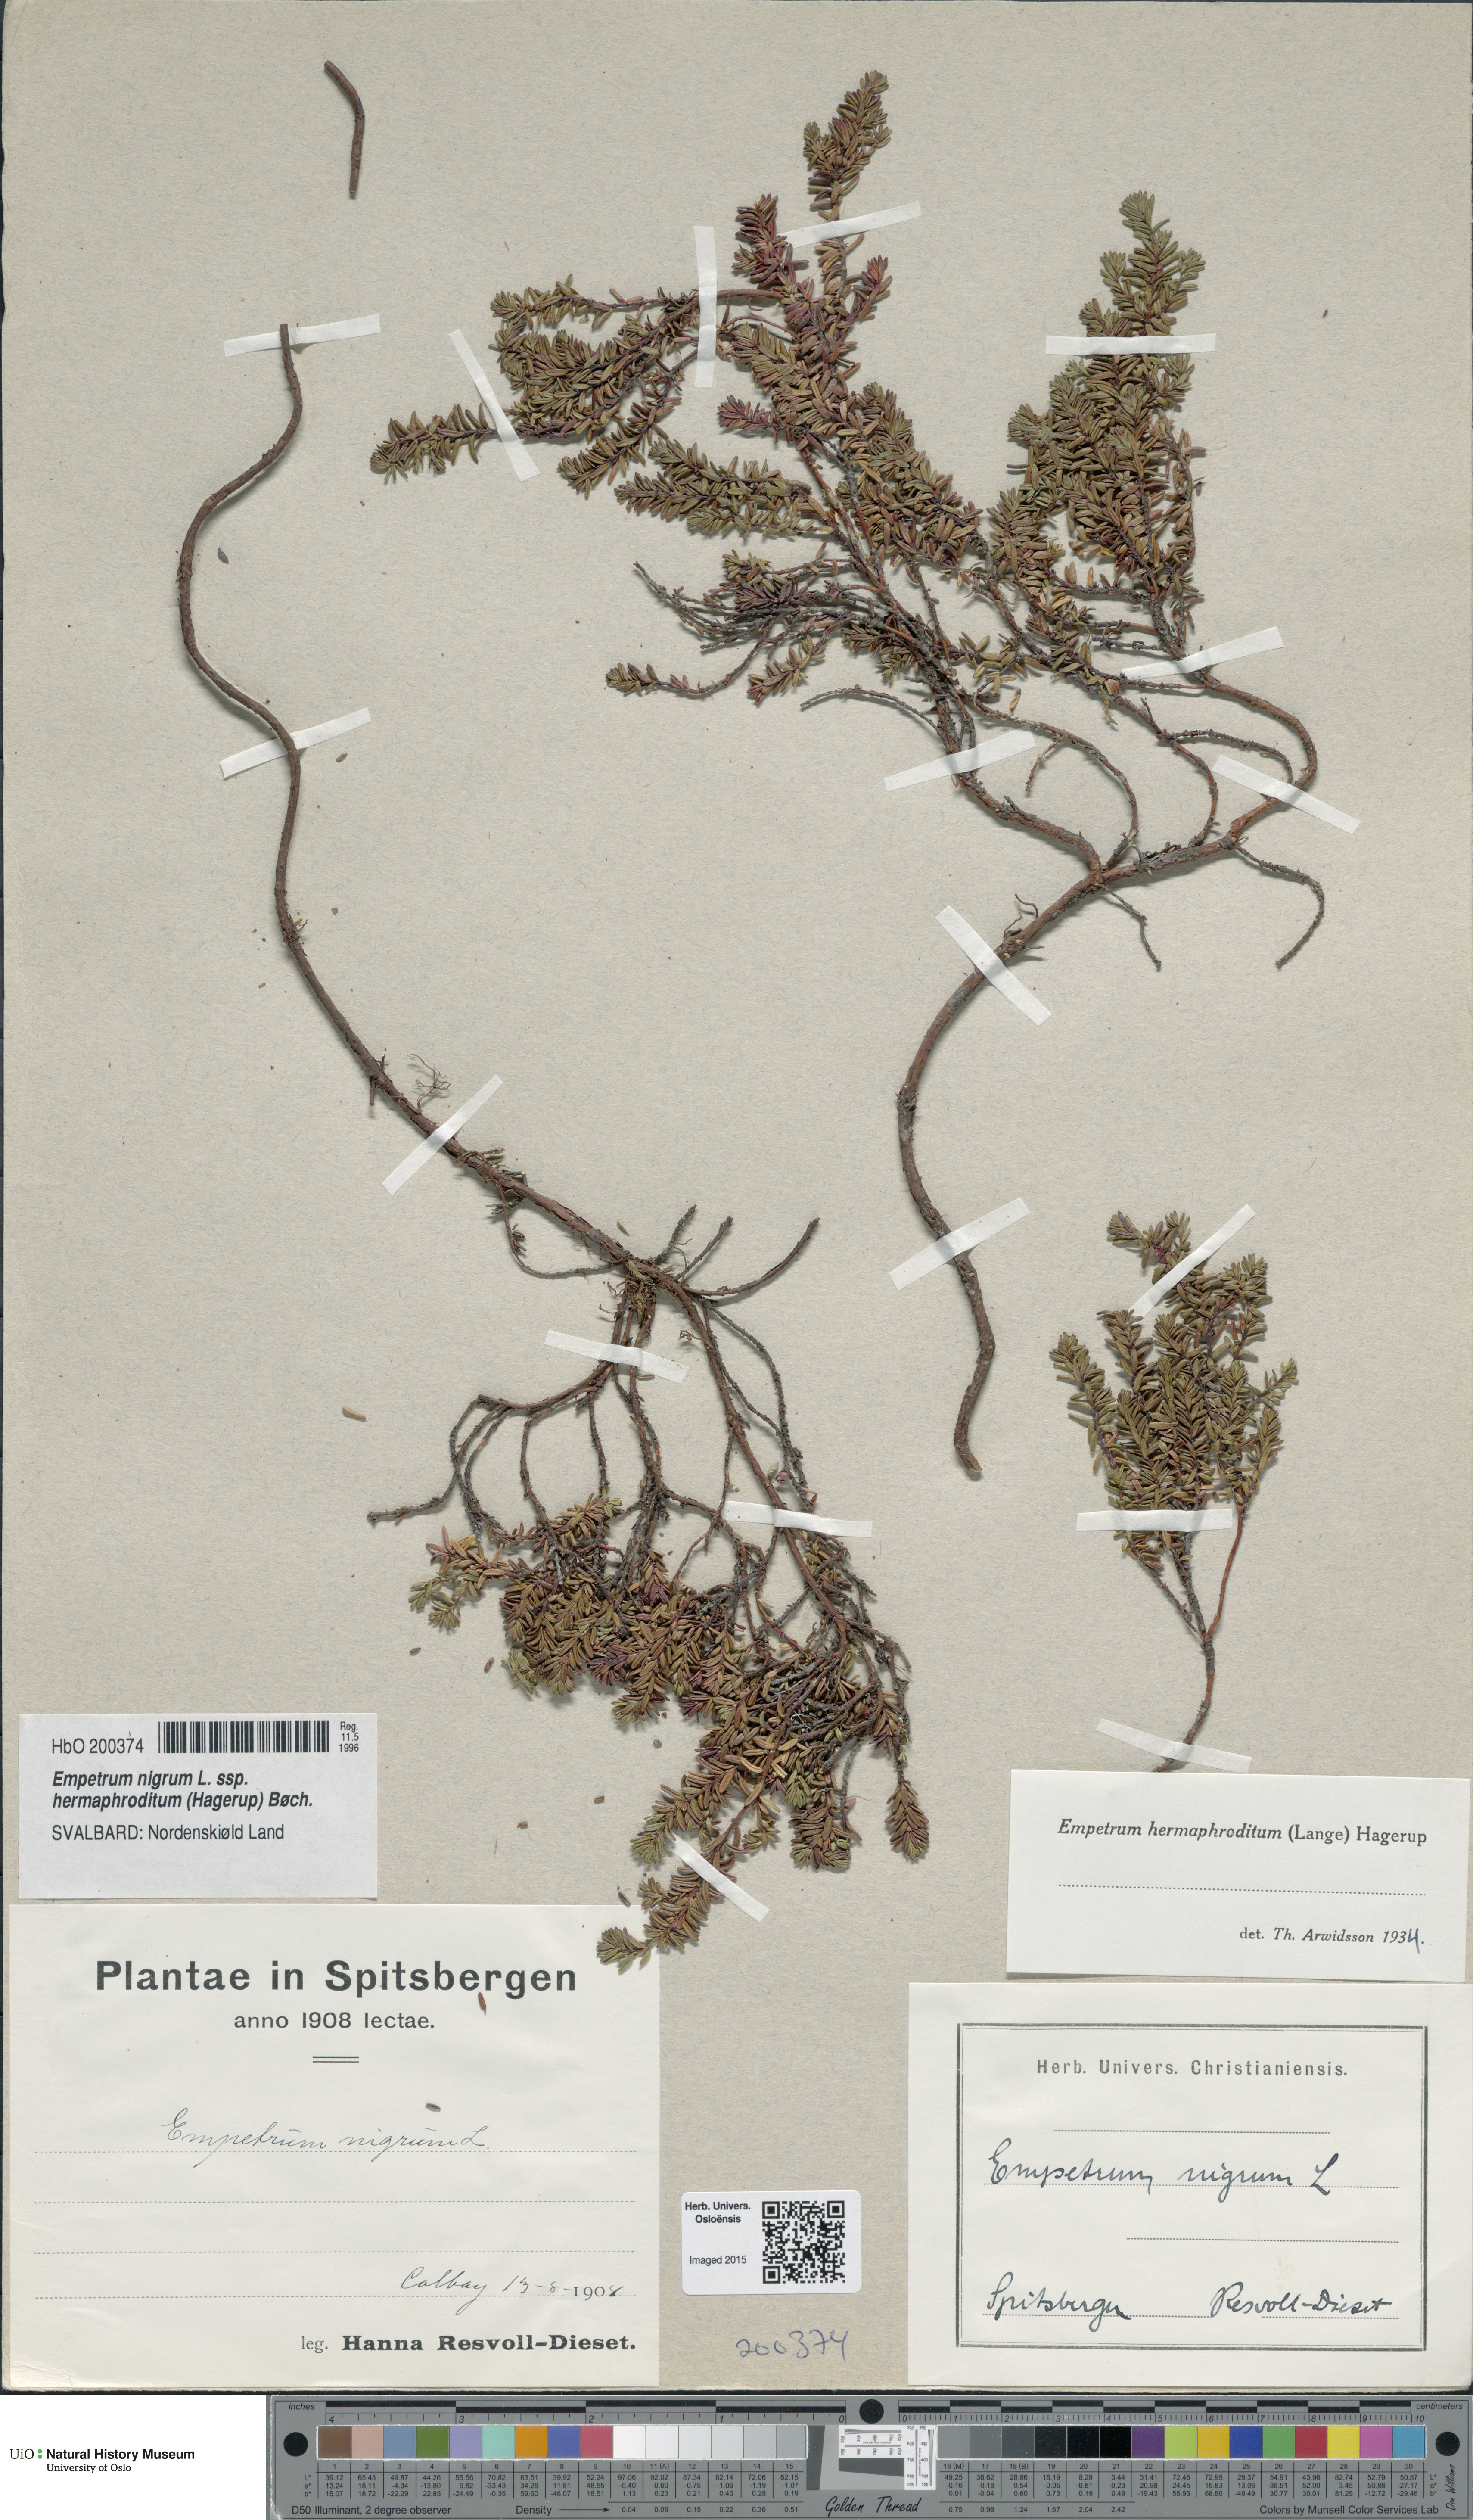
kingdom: Plantae
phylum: Tracheophyta
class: Magnoliopsida
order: Ericales
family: Ericaceae
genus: Empetrum
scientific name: Empetrum hermaphroditum
